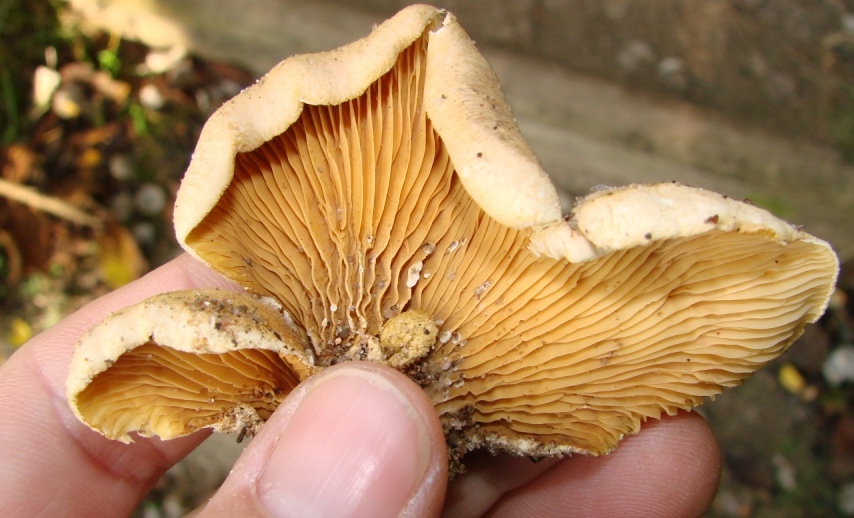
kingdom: Fungi
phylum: Basidiomycota
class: Agaricomycetes
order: Boletales
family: Tapinellaceae
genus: Tapinella
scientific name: Tapinella panuoides
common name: tømmer-viftesvamp
